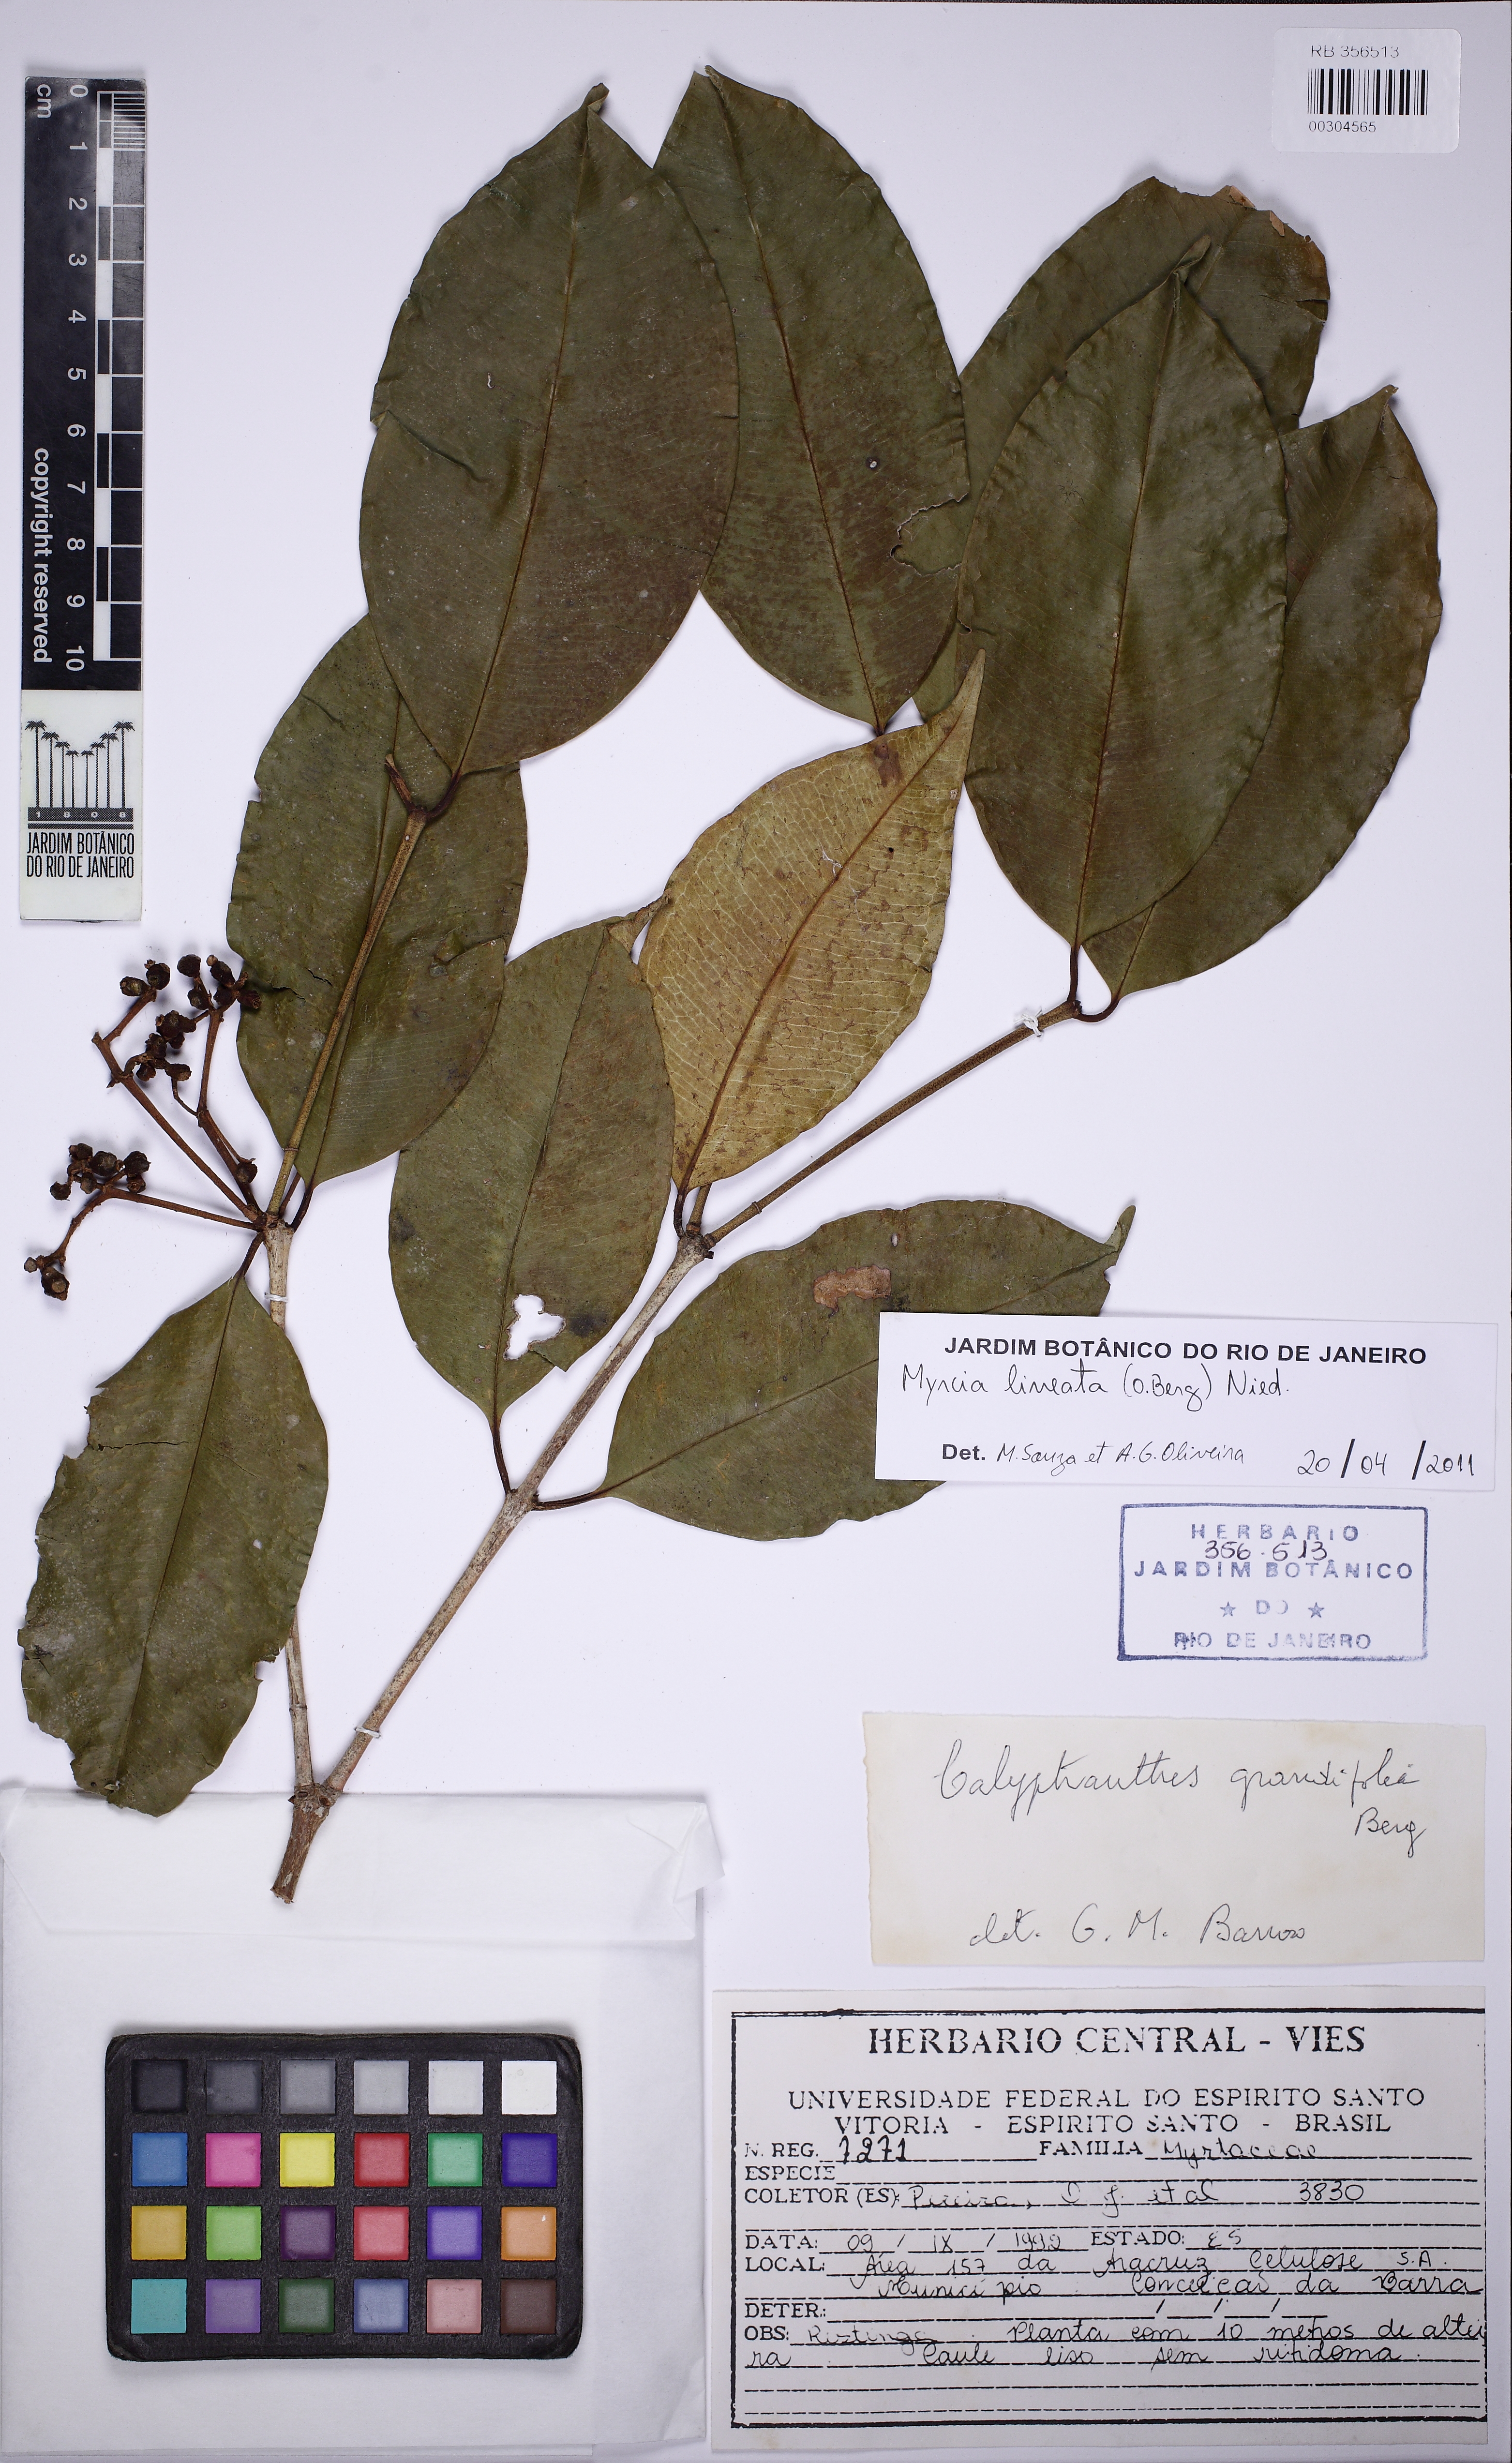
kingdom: Plantae
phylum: Tracheophyta
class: Magnoliopsida
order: Myrtales
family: Myrtaceae
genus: Myrcia
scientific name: Myrcia lineata
